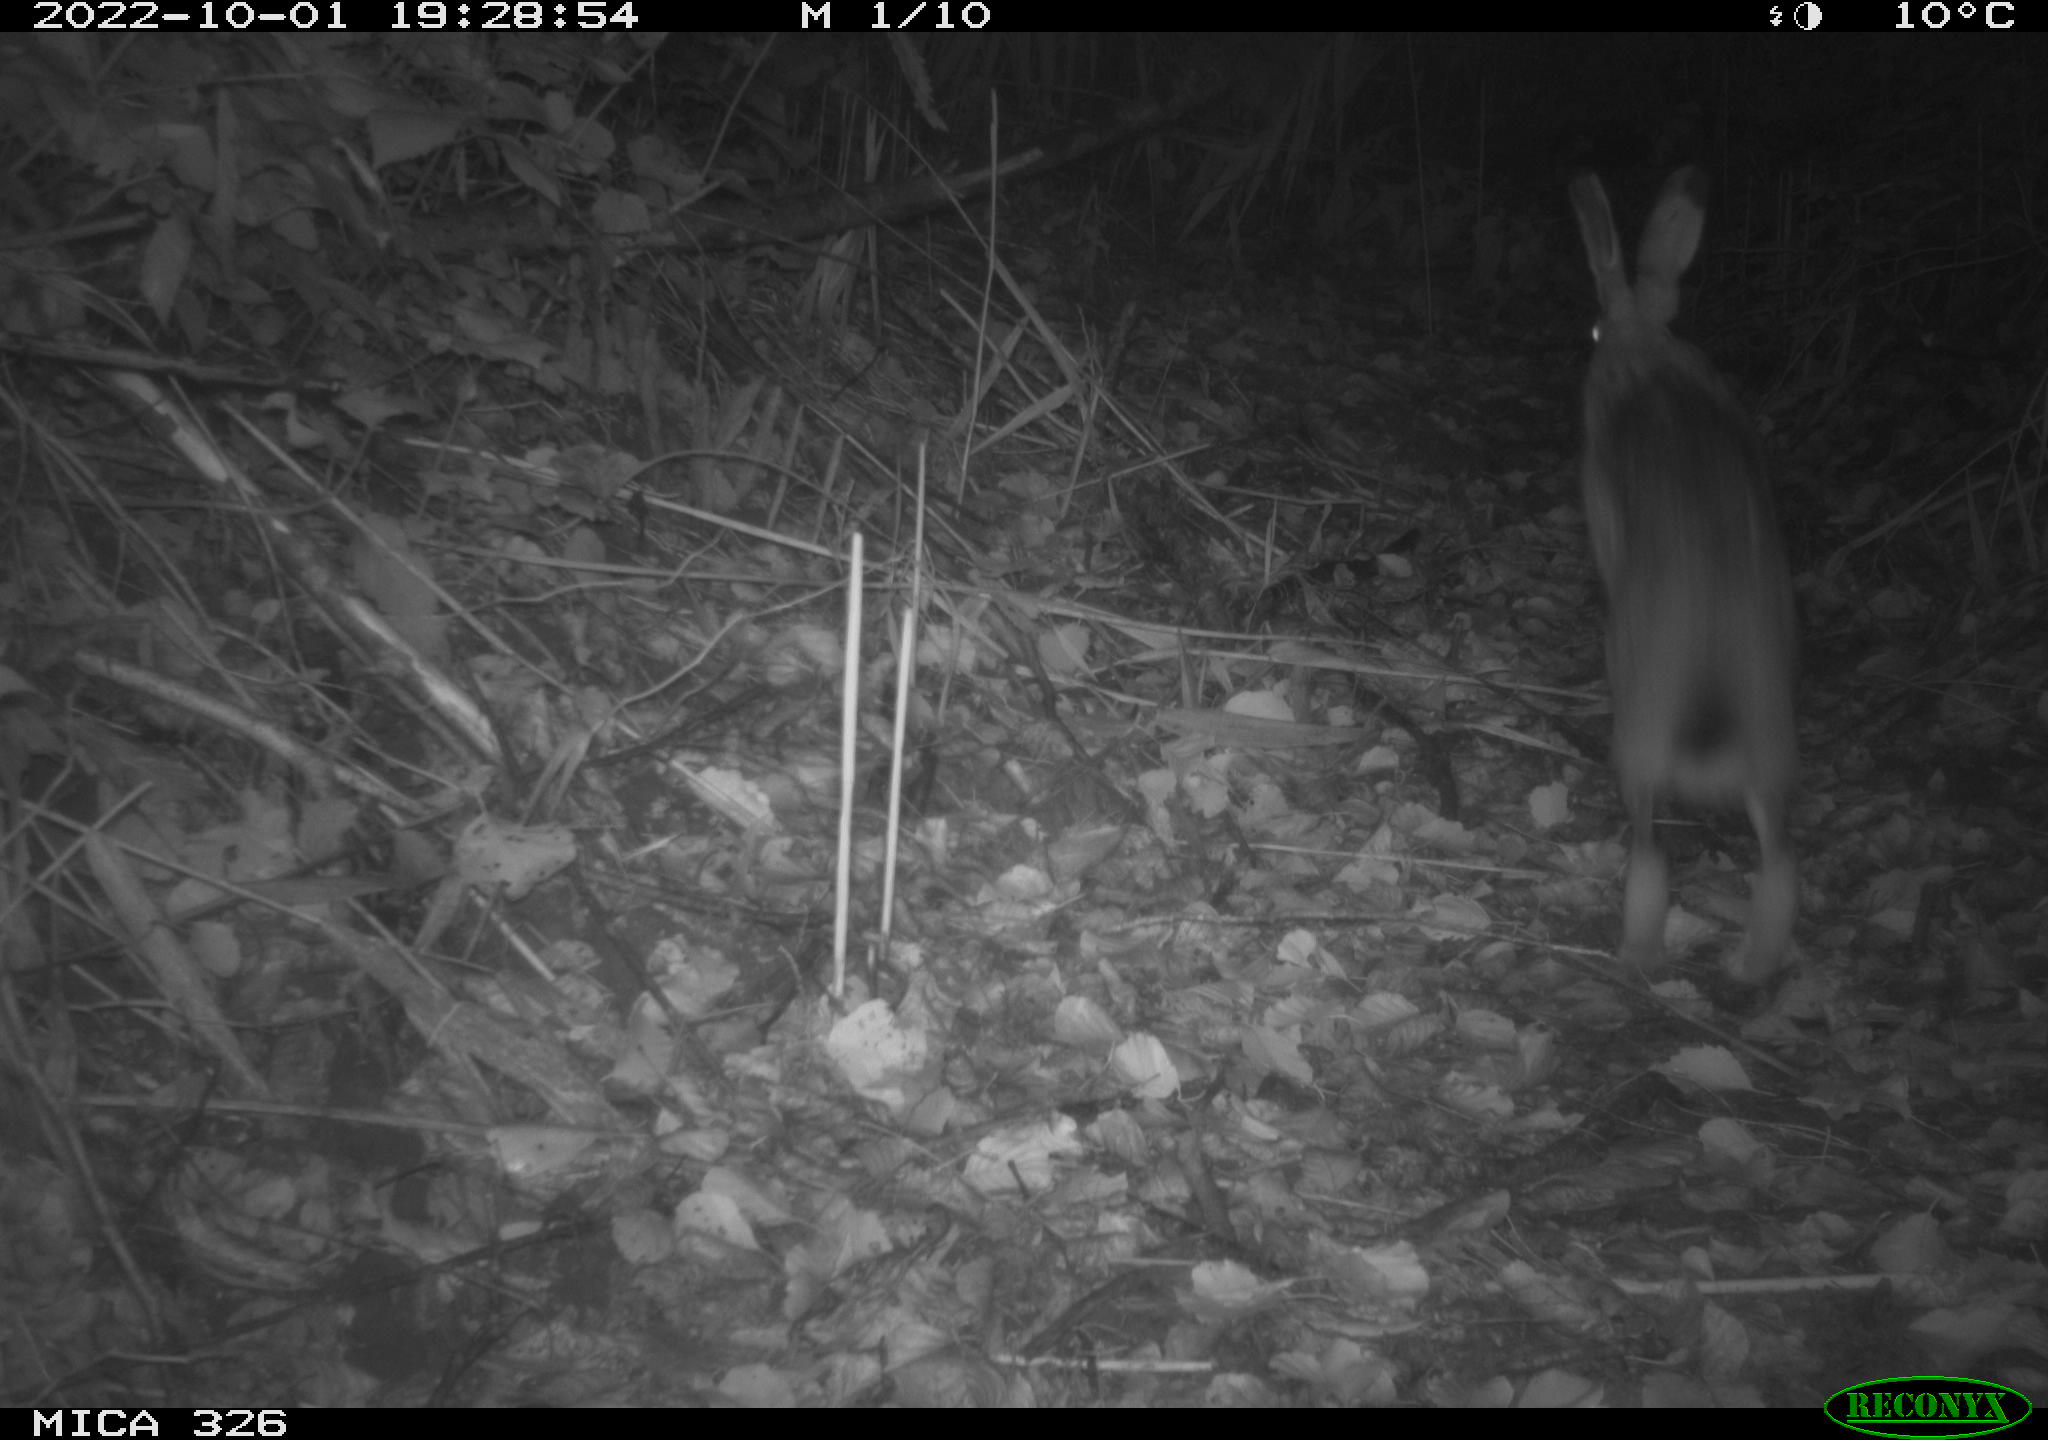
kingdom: Animalia
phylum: Chordata
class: Mammalia
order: Lagomorpha
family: Leporidae
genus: Lepus
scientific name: Lepus europaeus
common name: European hare
